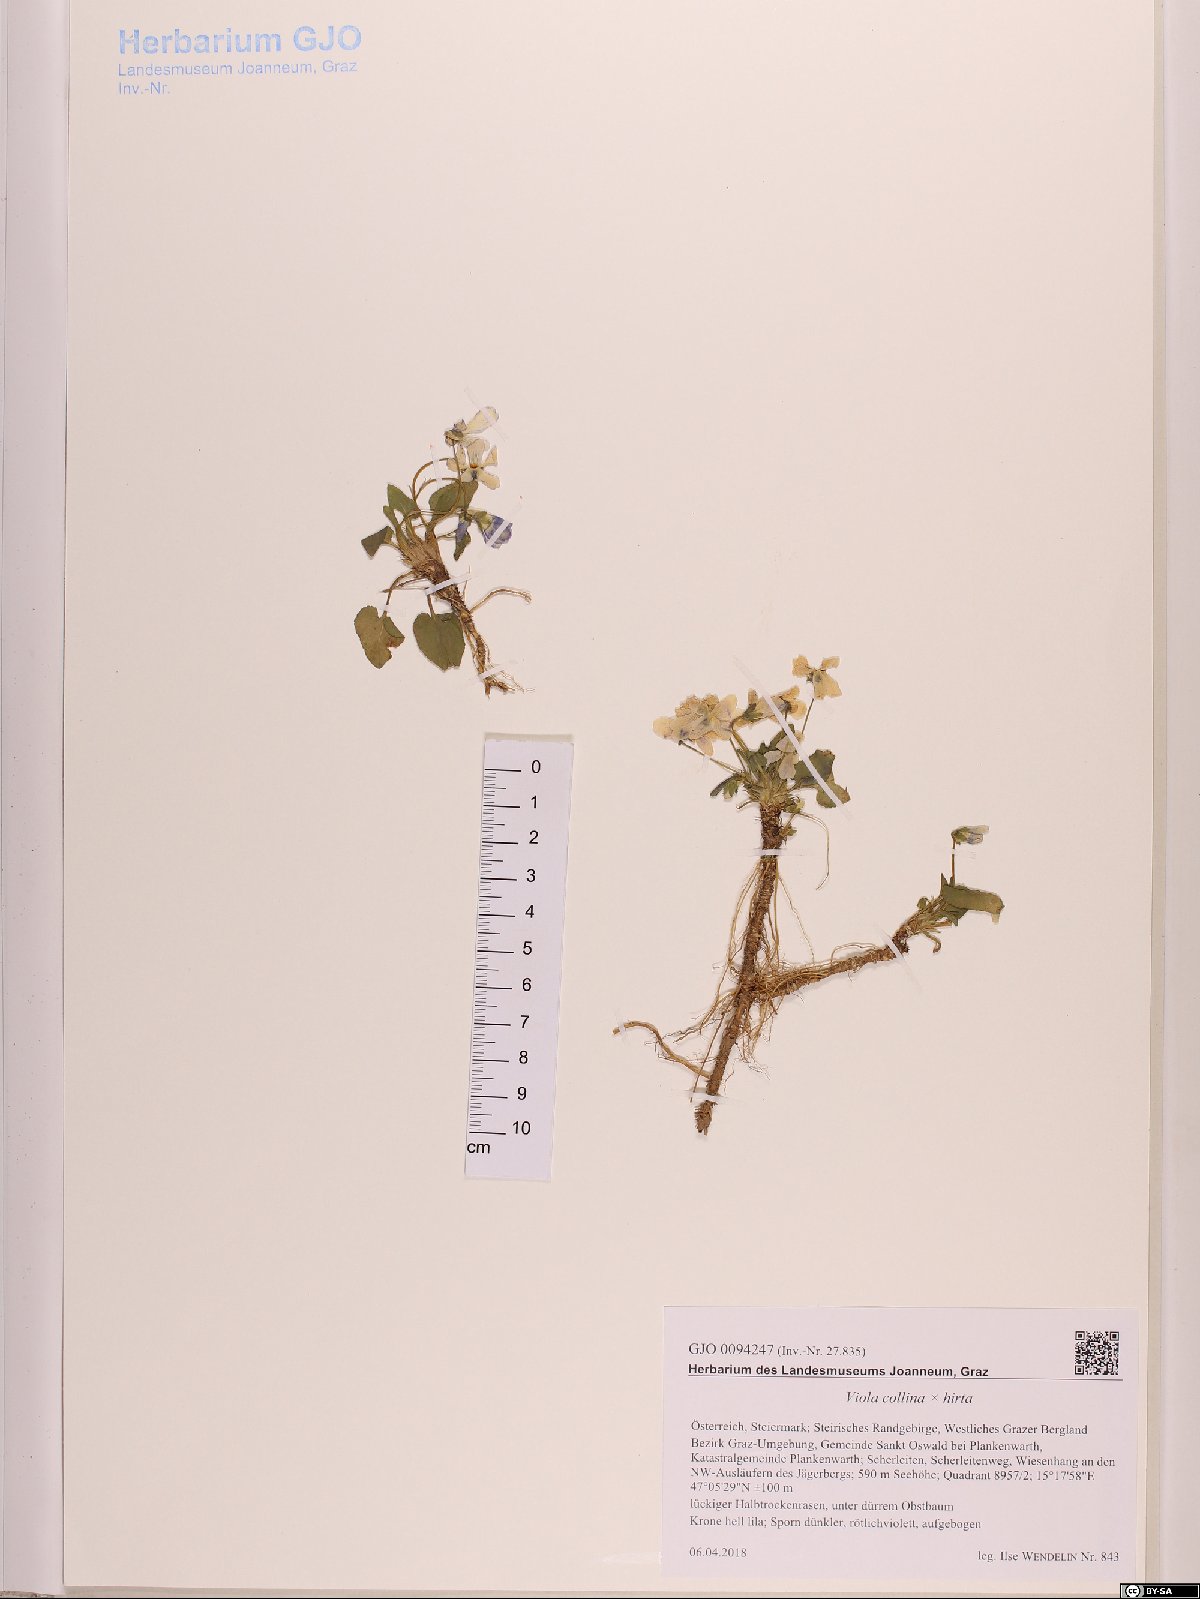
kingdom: Plantae
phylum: Tracheophyta
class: Magnoliopsida
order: Malpighiales
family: Violaceae
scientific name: Violaceae
